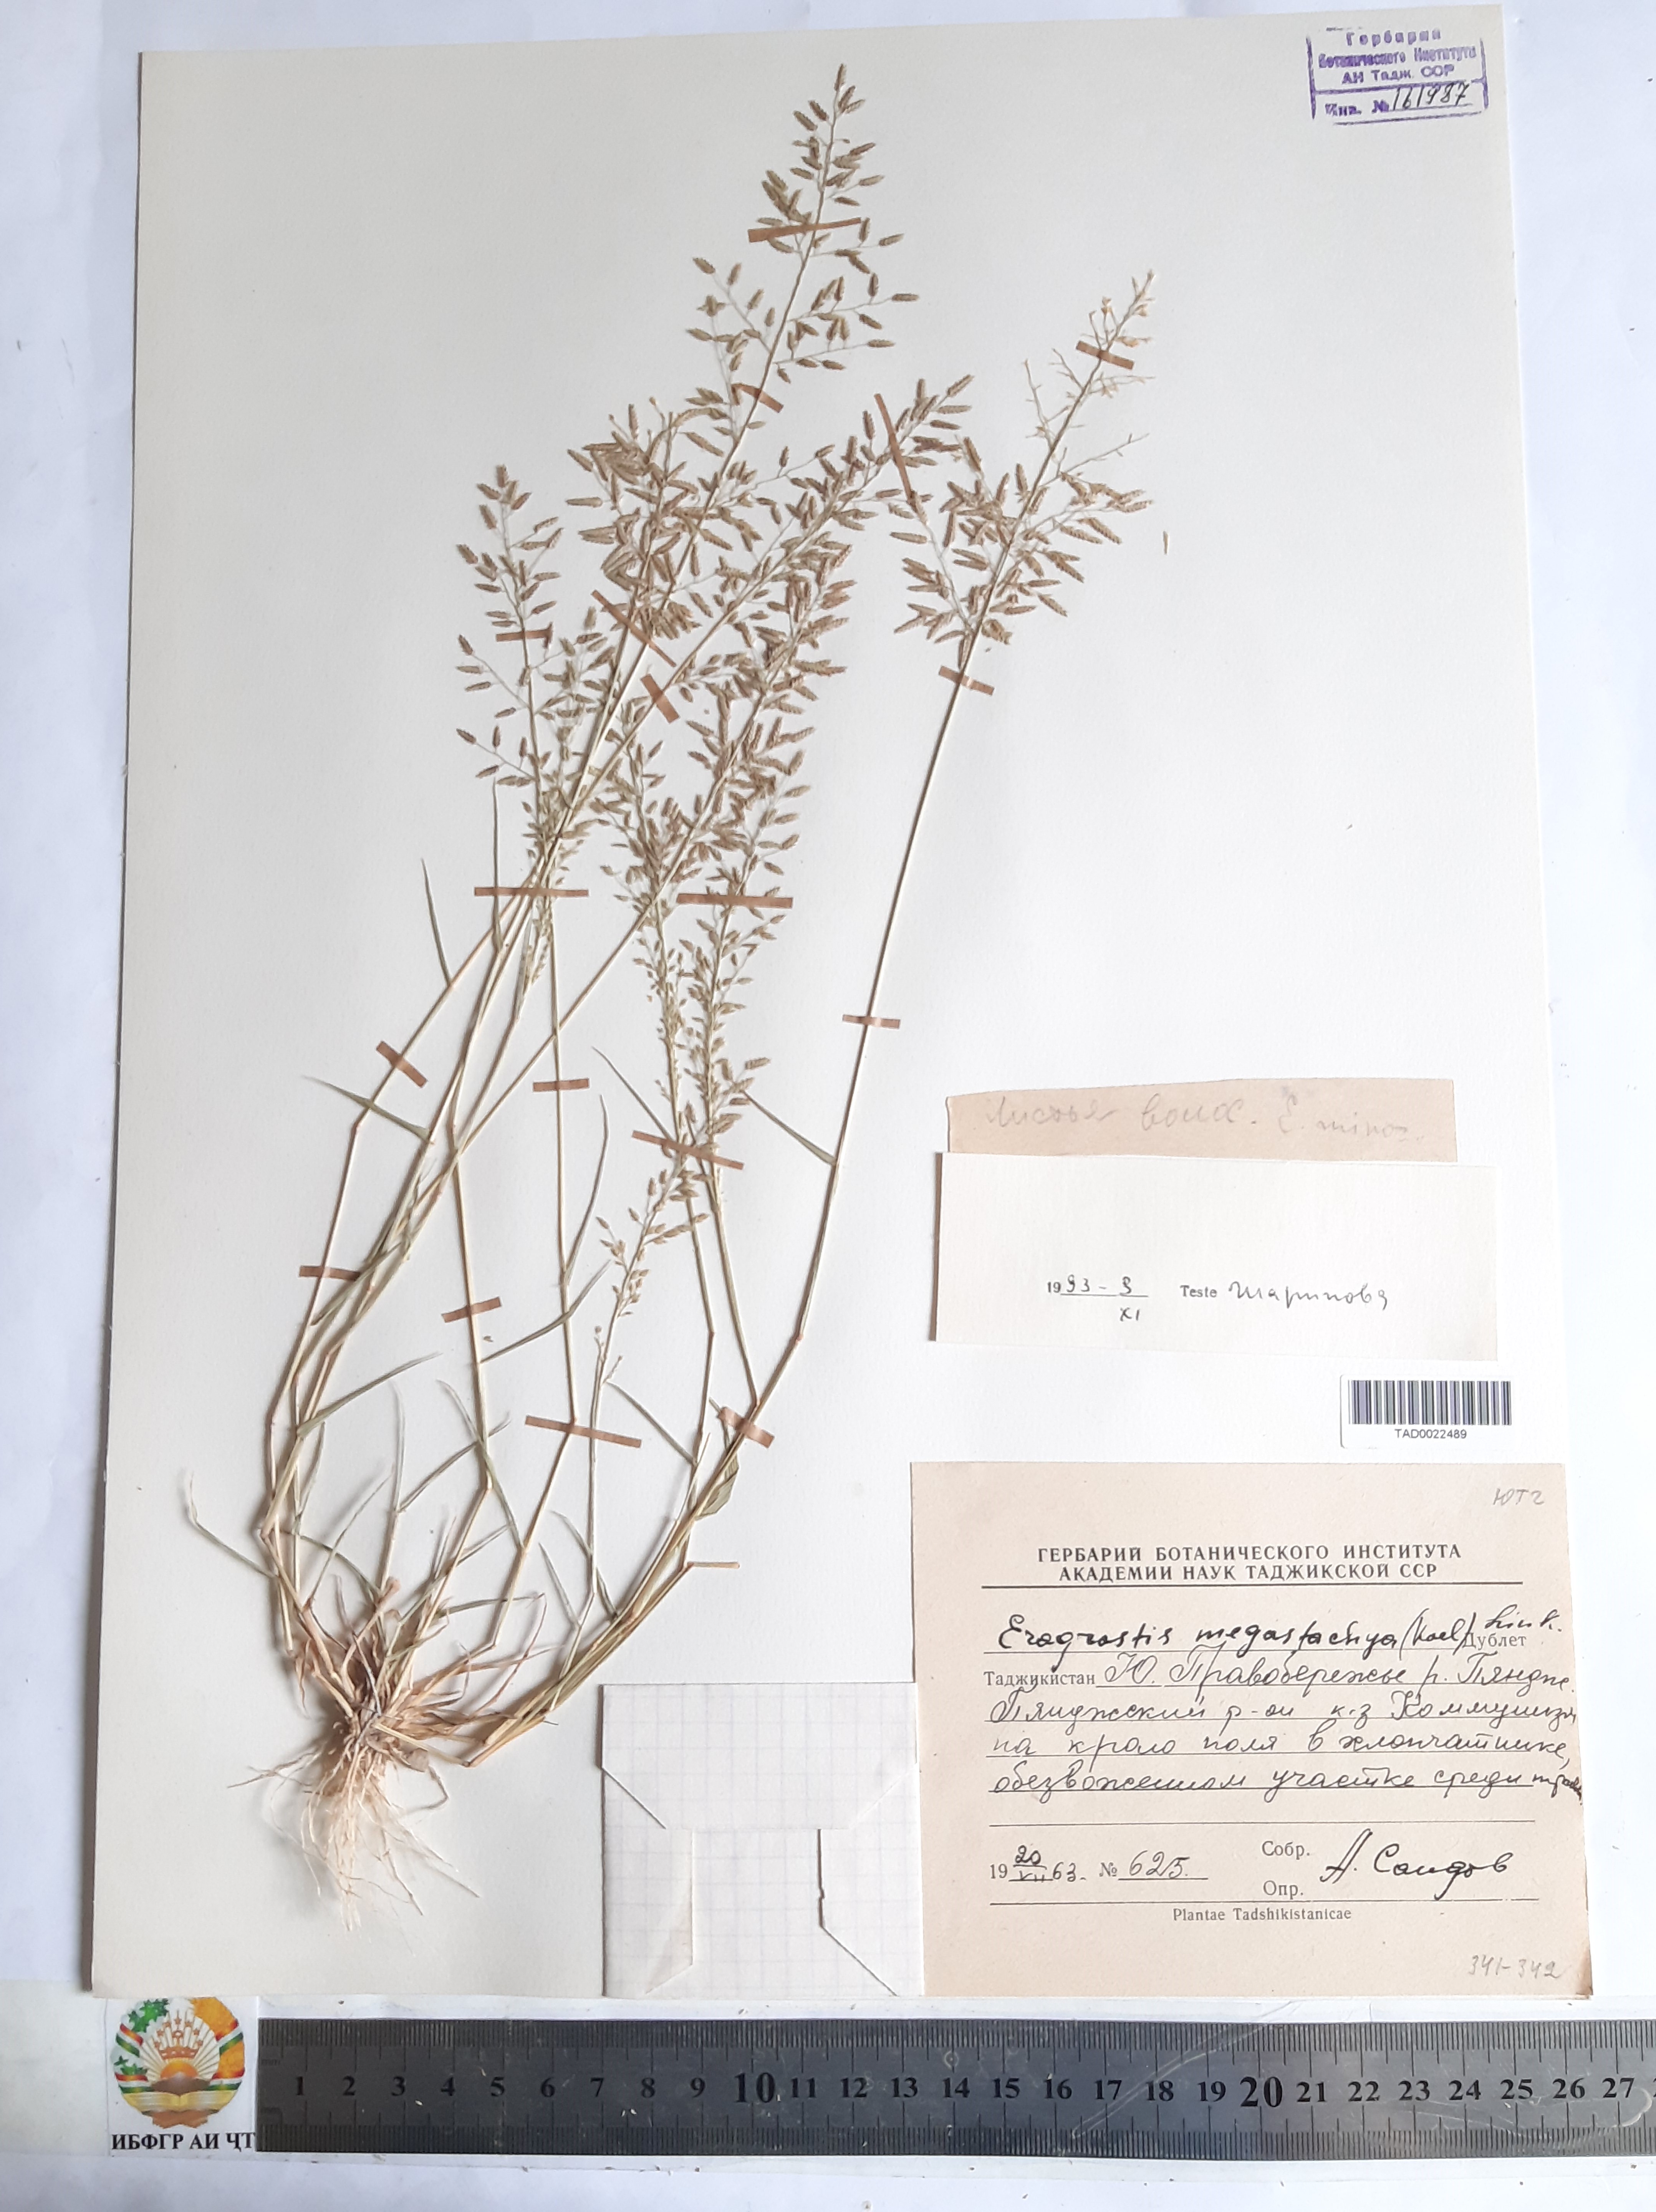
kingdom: Plantae
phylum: Tracheophyta
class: Liliopsida
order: Poales
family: Poaceae
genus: Eragrostis
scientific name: Eragrostis minor
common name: Small love-grass
